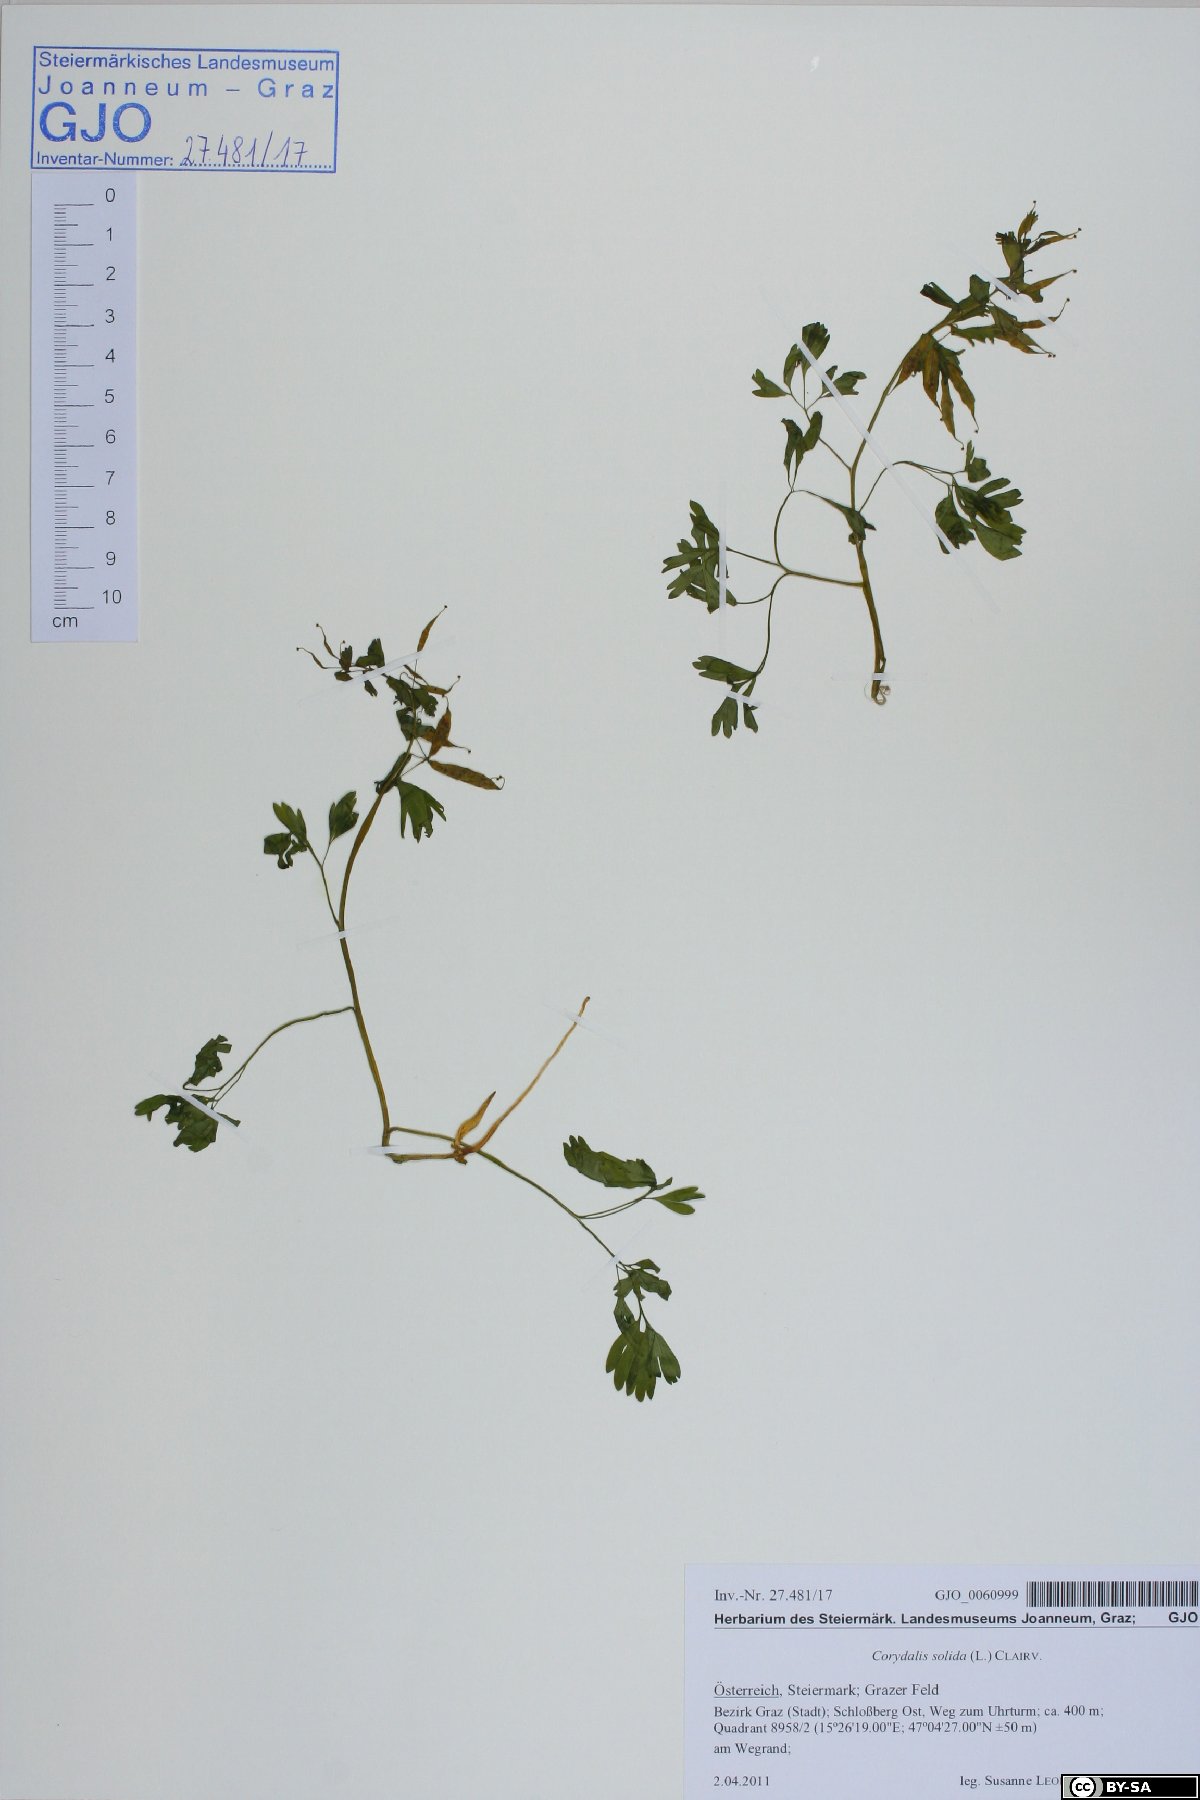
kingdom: Plantae
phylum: Tracheophyta
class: Magnoliopsida
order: Ranunculales
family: Papaveraceae
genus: Corydalis
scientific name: Corydalis solida
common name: Bird-in-a-bush
